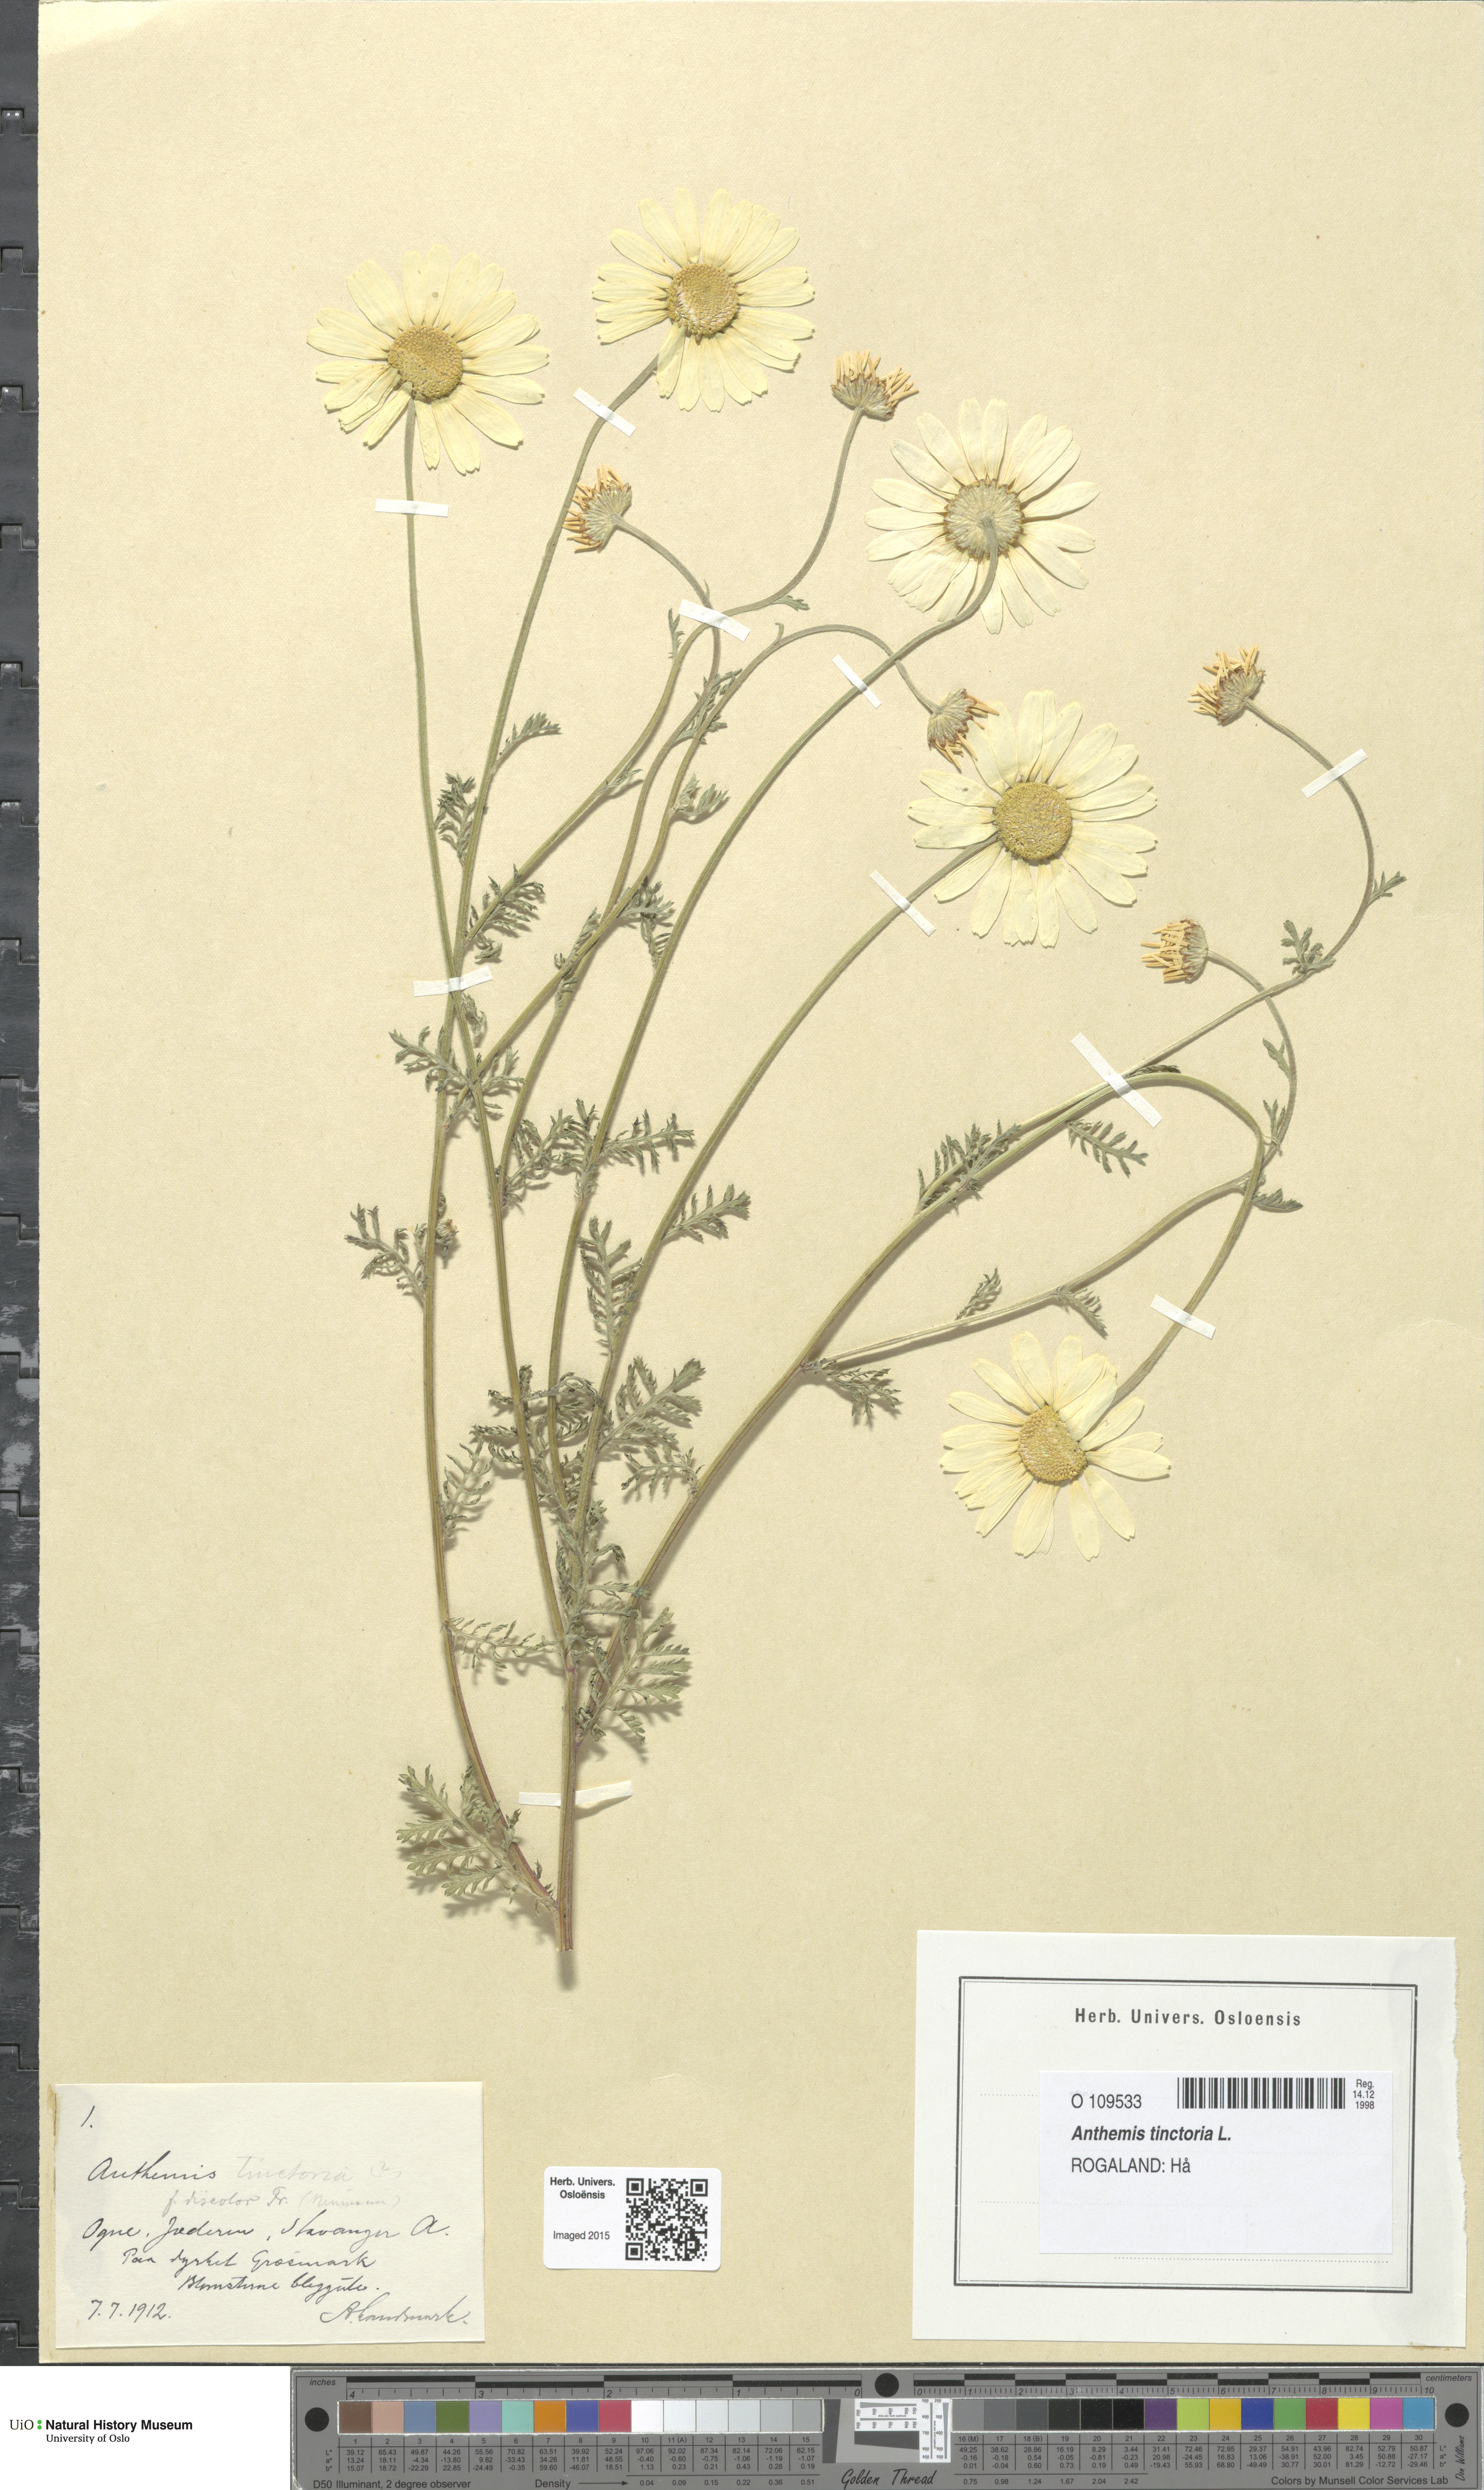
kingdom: Plantae
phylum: Tracheophyta
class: Magnoliopsida
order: Asterales
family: Asteraceae
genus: Cota
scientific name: Cota tinctoria
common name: Golden chamomile
